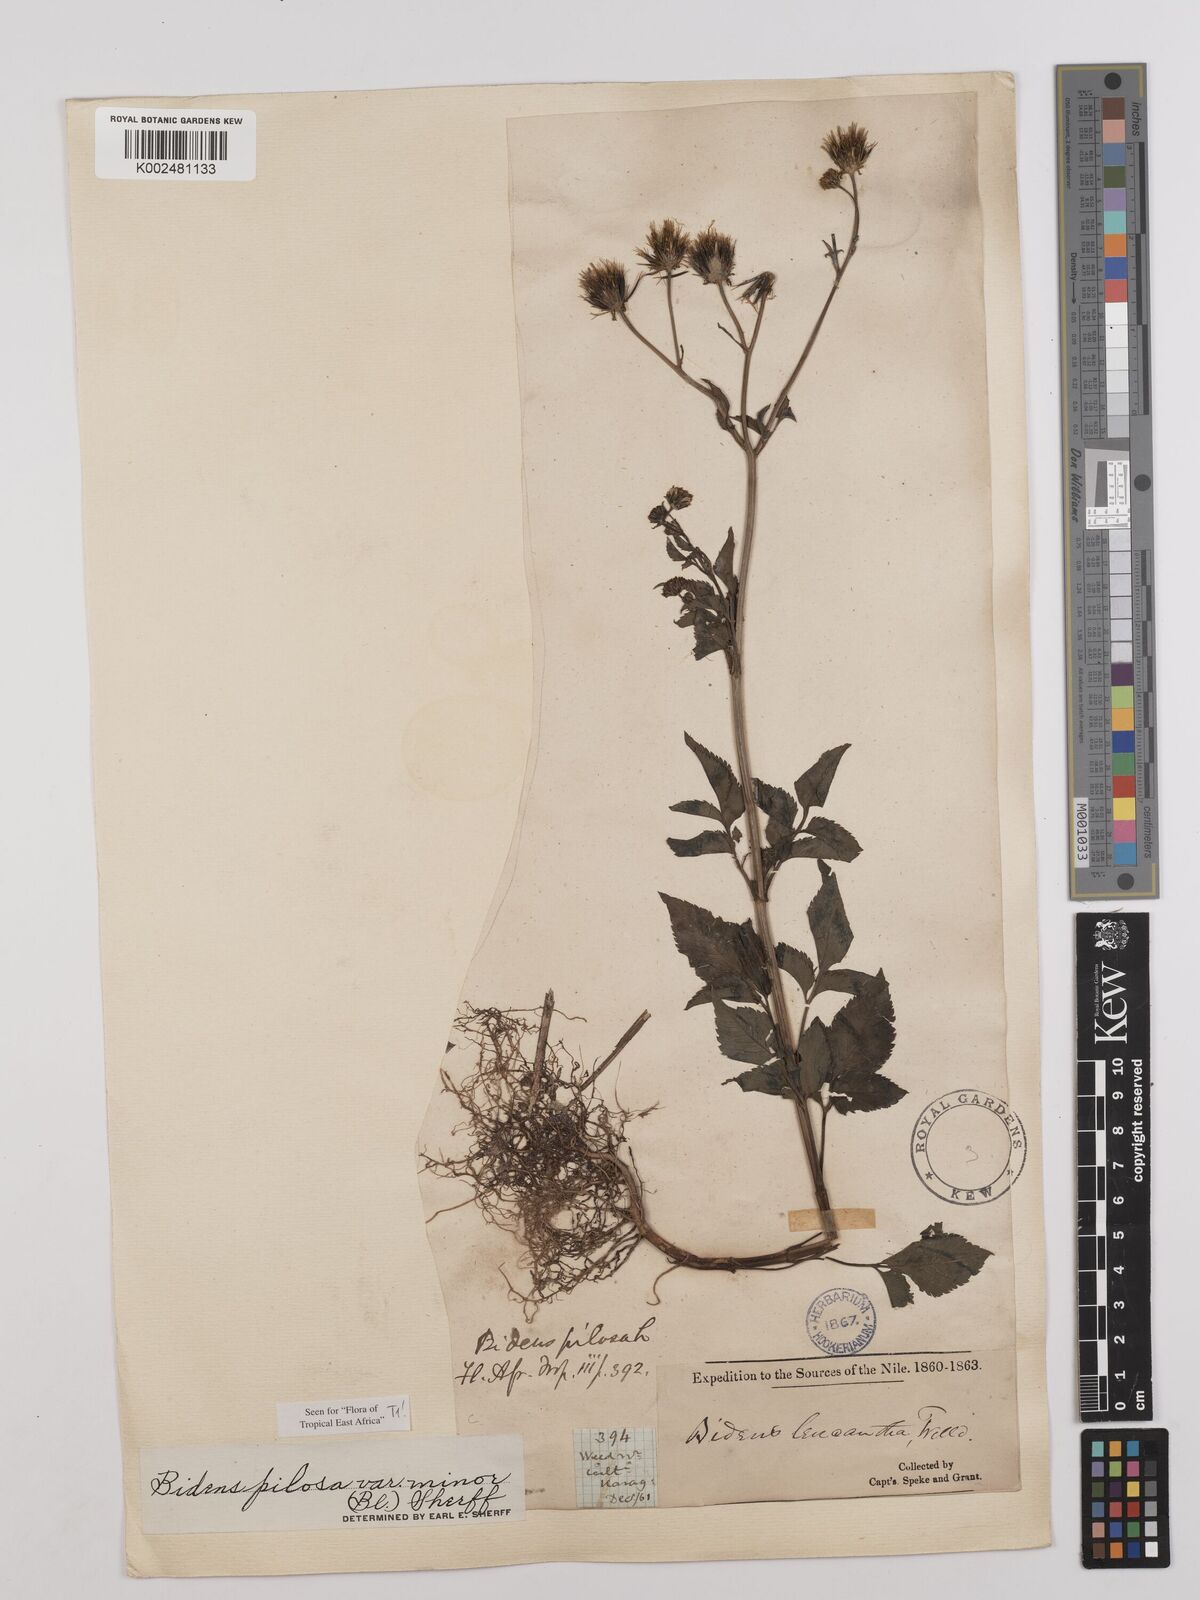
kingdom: Plantae
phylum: Tracheophyta
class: Magnoliopsida
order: Asterales
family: Asteraceae
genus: Bidens
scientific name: Bidens pilosa
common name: Black-jack
